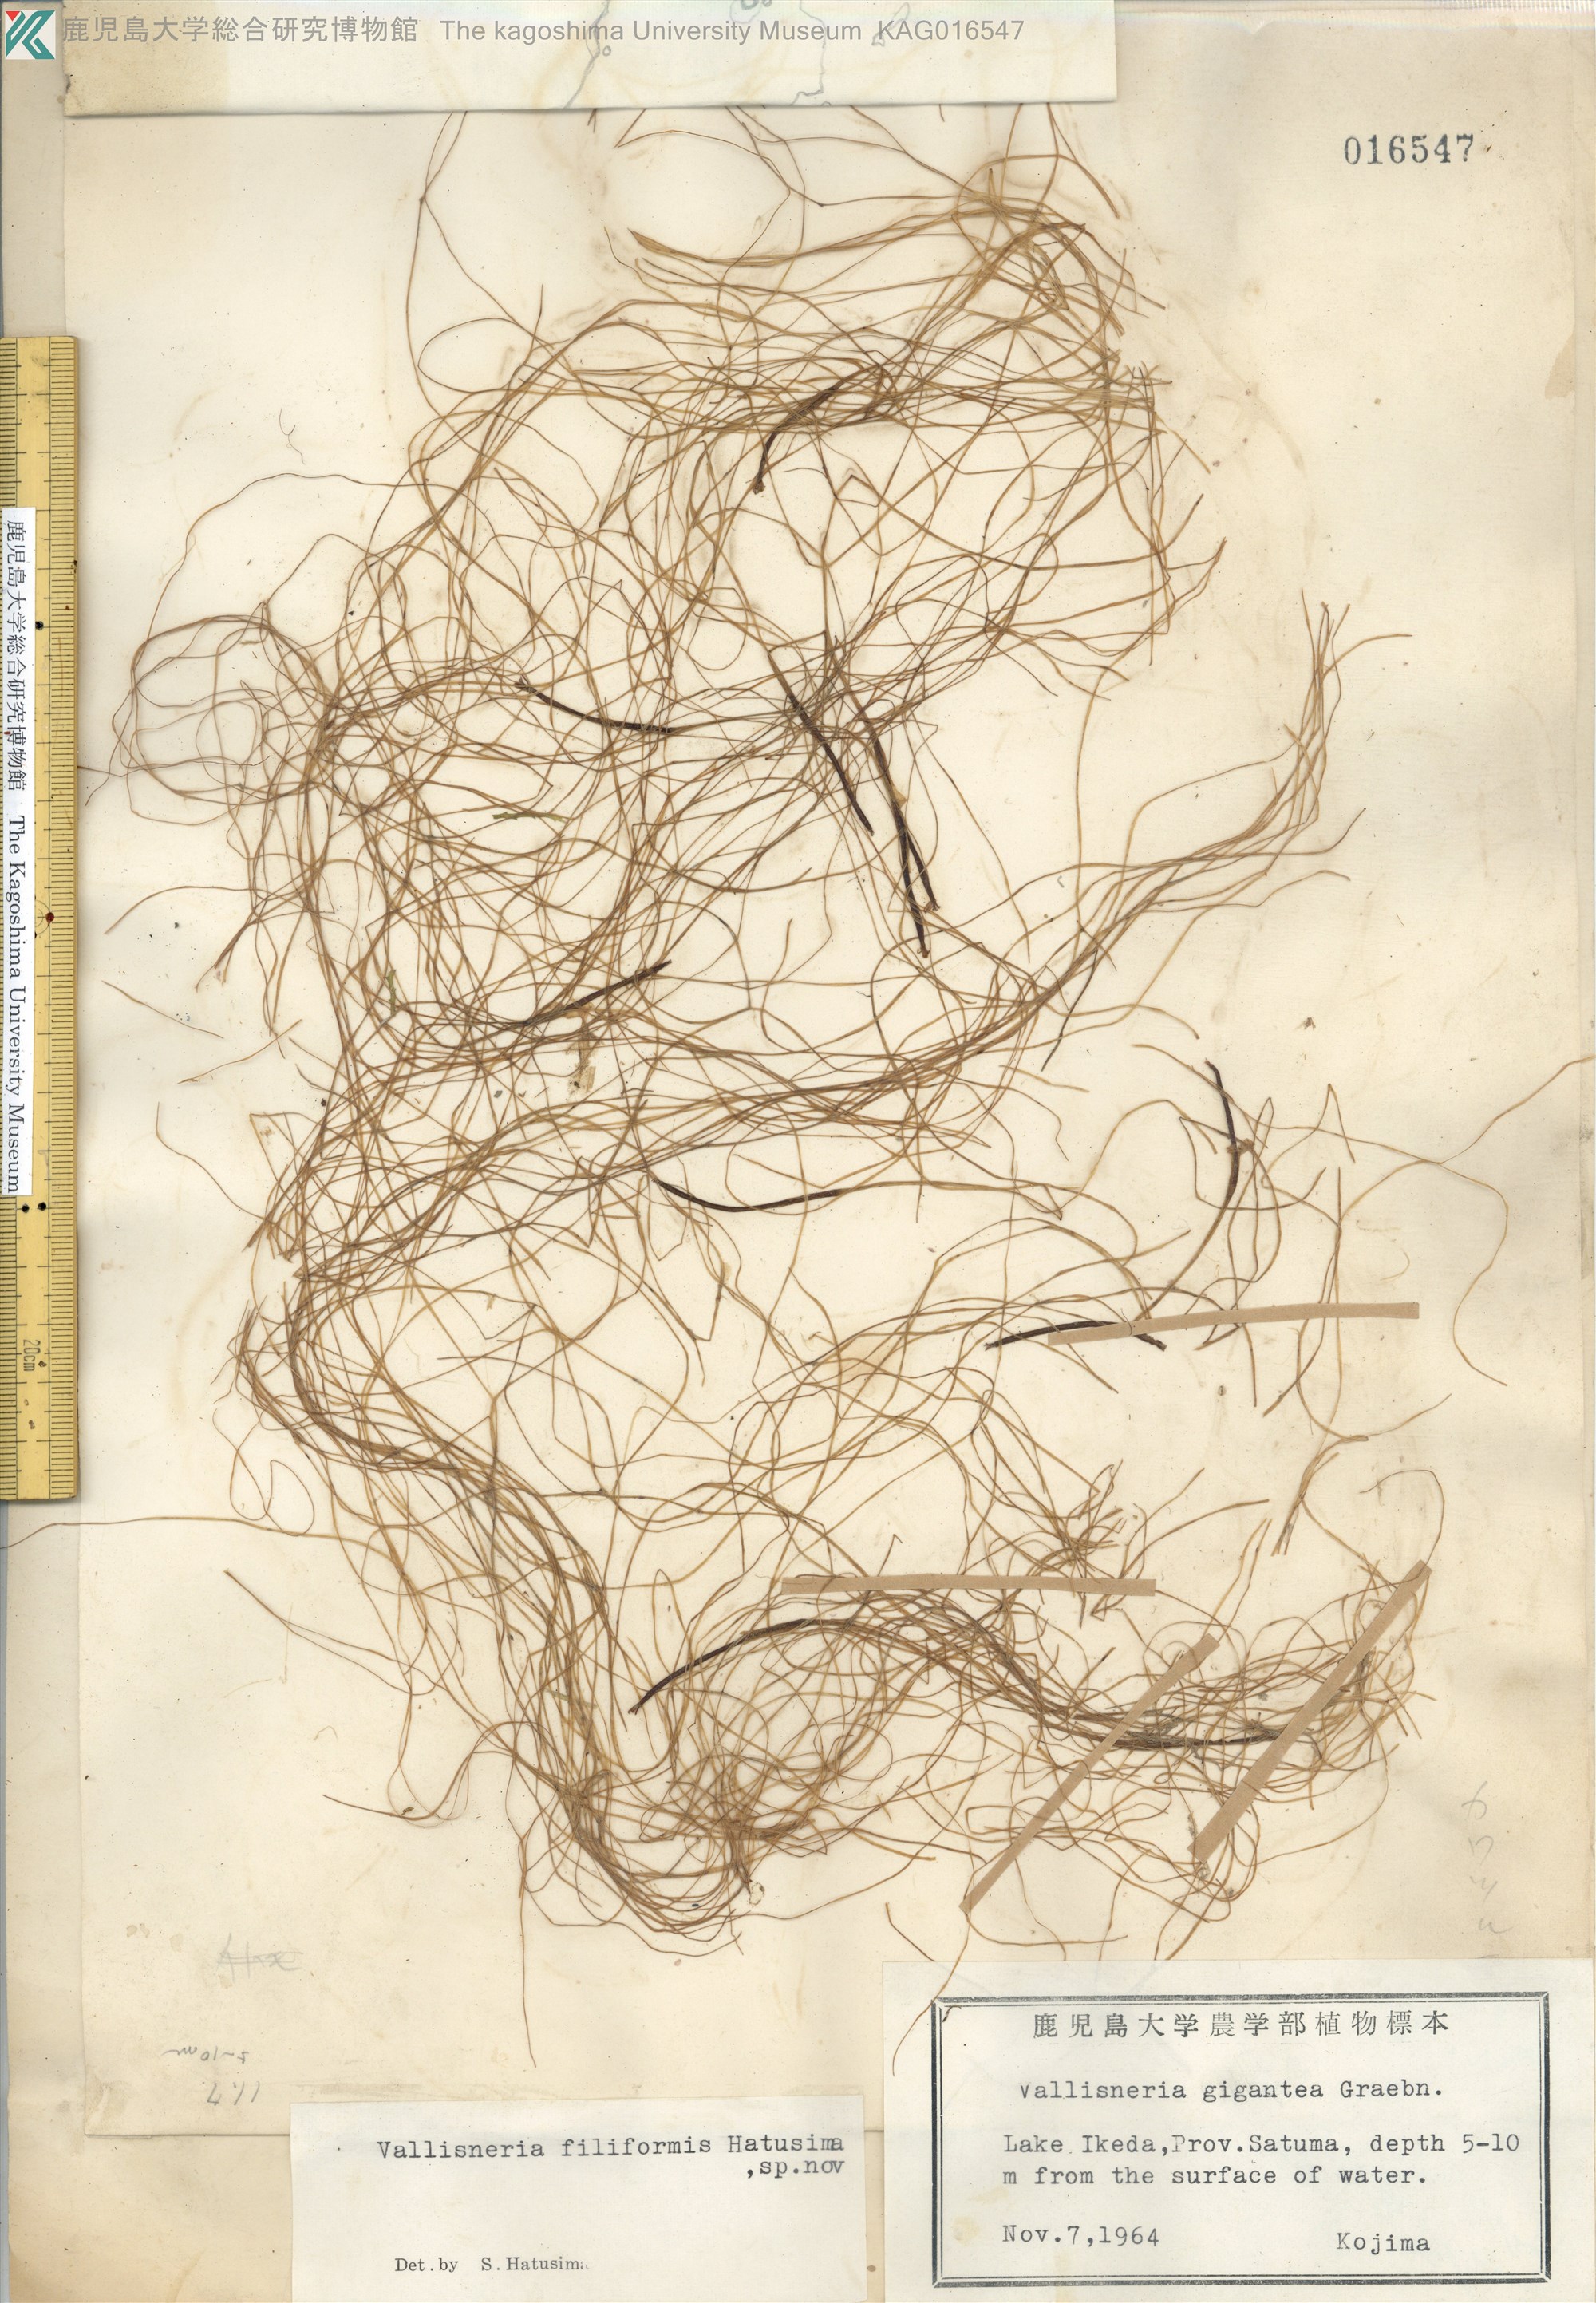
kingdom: Plantae
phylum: Tracheophyta
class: Liliopsida
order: Alismatales
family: Hydrocharitaceae
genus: Vallisneria
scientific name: Vallisneria
